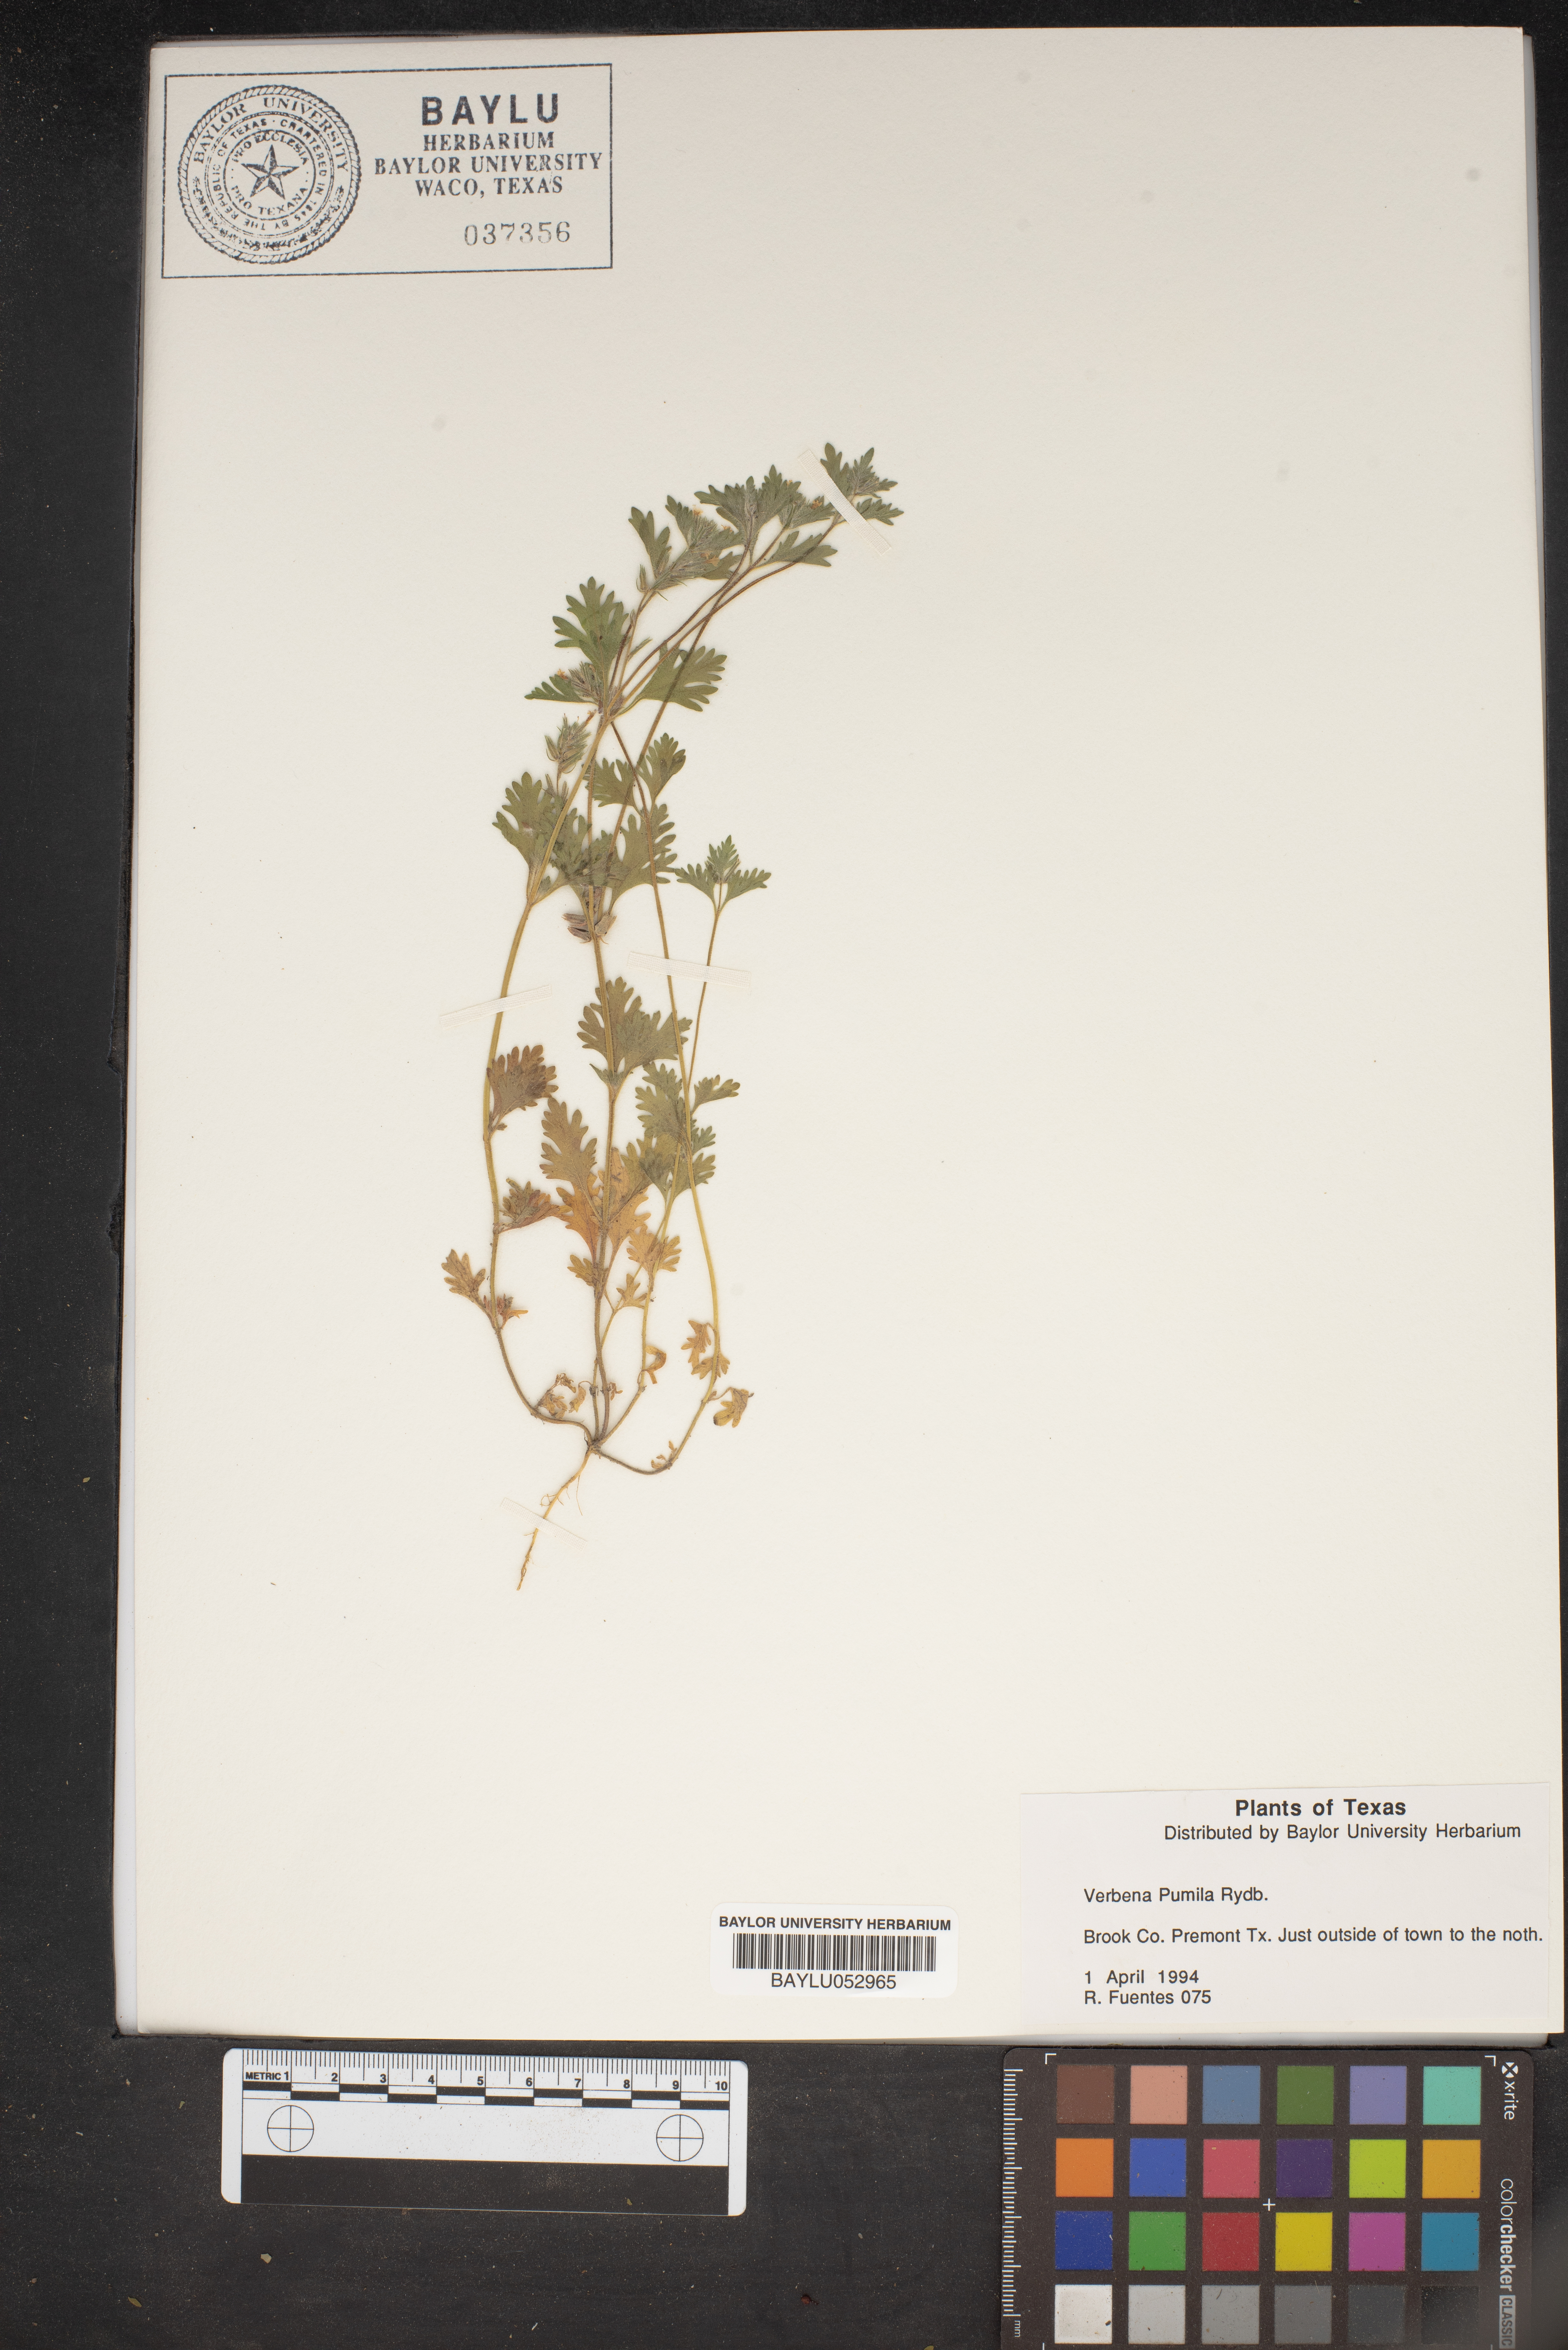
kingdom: Plantae
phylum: Tracheophyta
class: Magnoliopsida
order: Lamiales
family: Verbenaceae
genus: Verbena
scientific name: Verbena pumila
